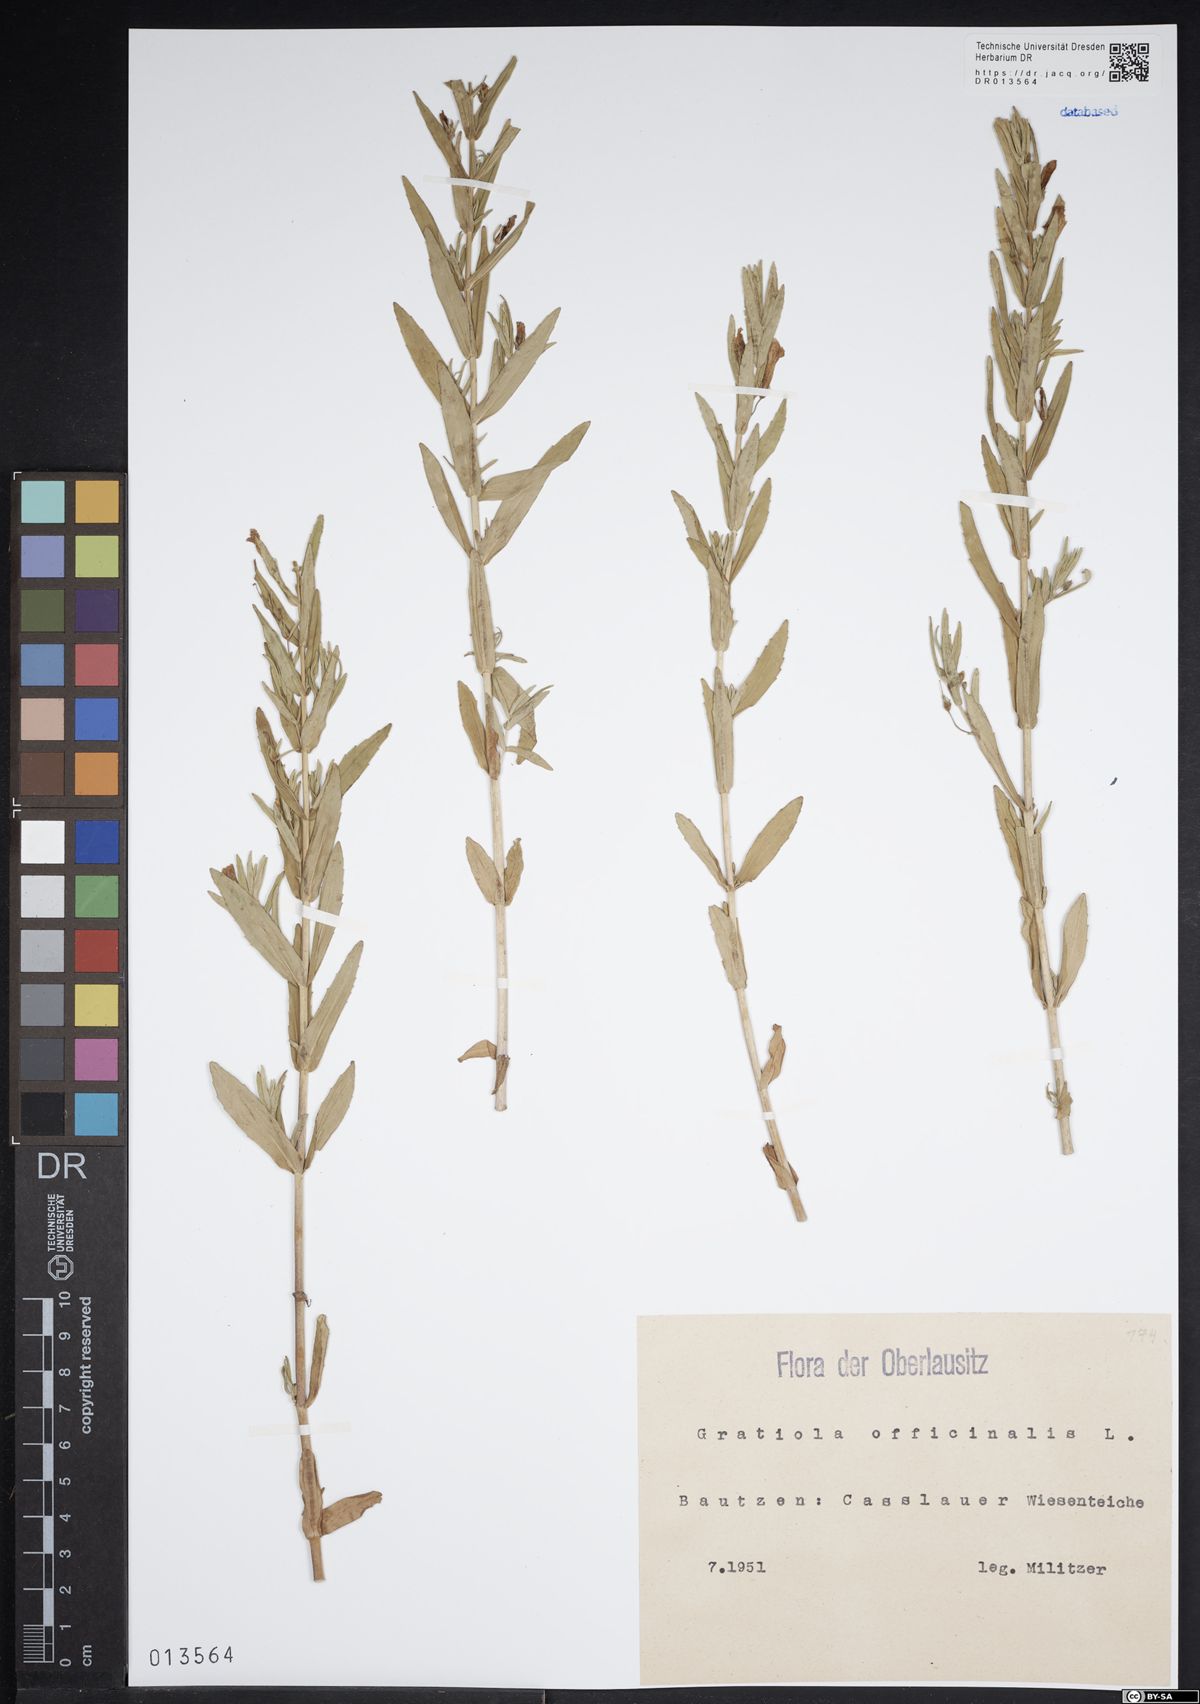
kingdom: Plantae
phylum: Tracheophyta
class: Magnoliopsida
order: Lamiales
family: Plantaginaceae
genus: Gratiola
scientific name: Gratiola officinalis
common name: Gratiola
